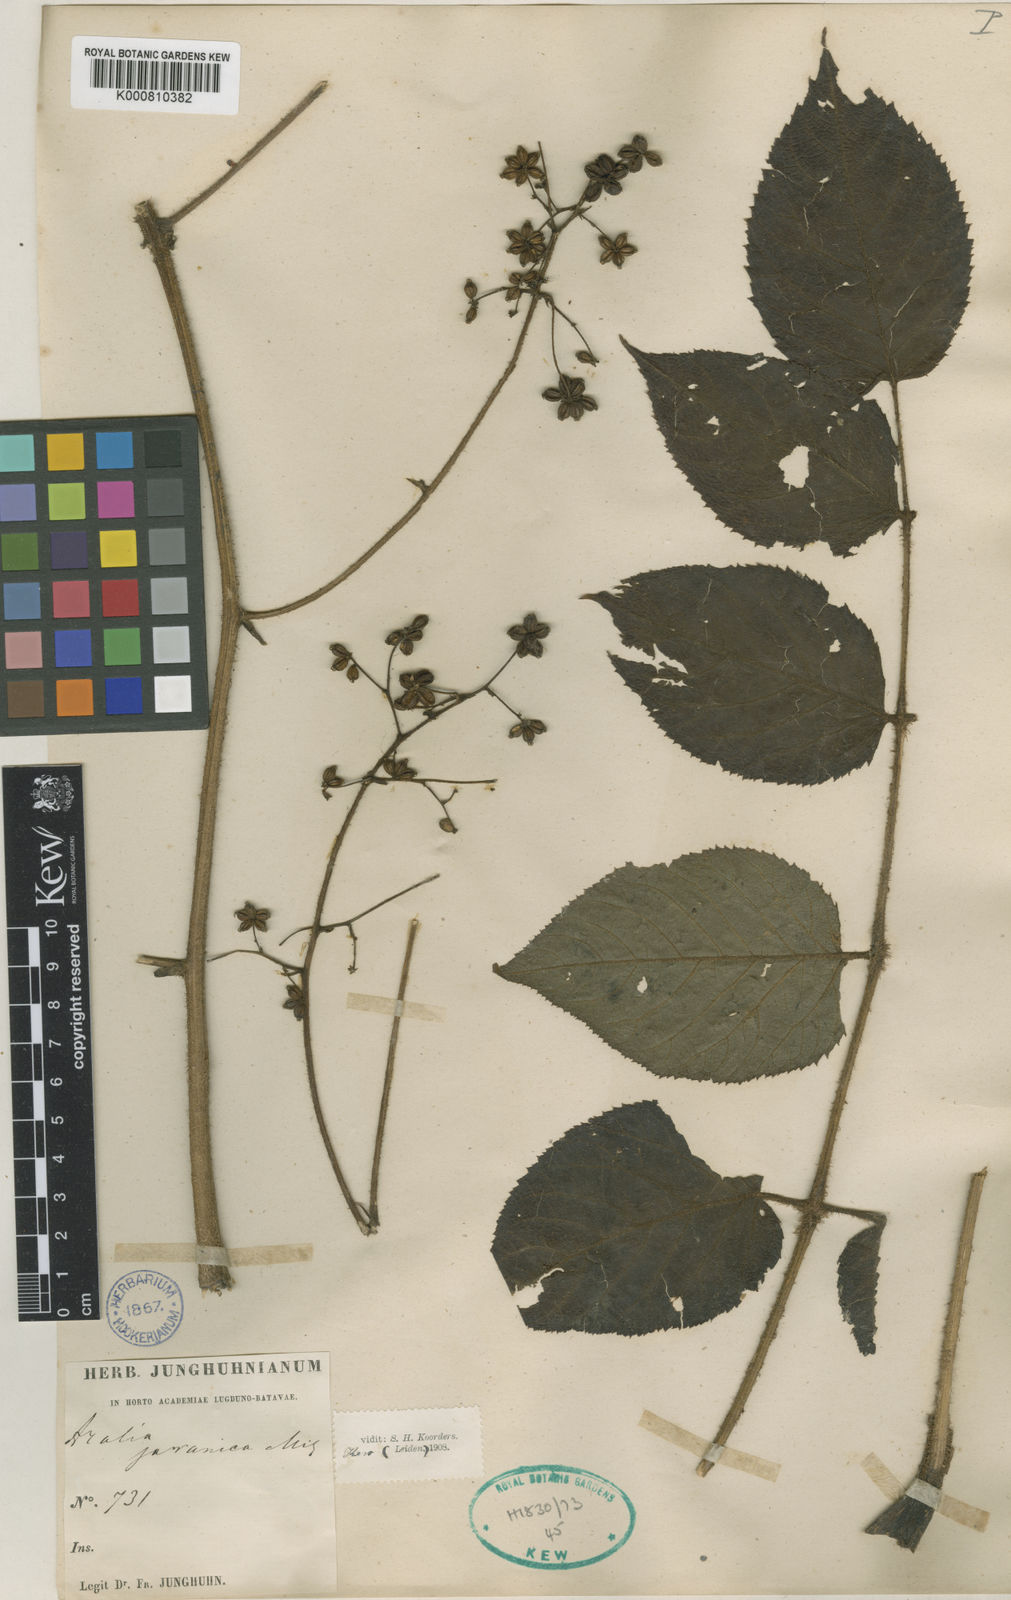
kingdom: Plantae
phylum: Tracheophyta
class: Magnoliopsida
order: Apiales
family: Araliaceae
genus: Aralia
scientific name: Aralia dasyphylla
